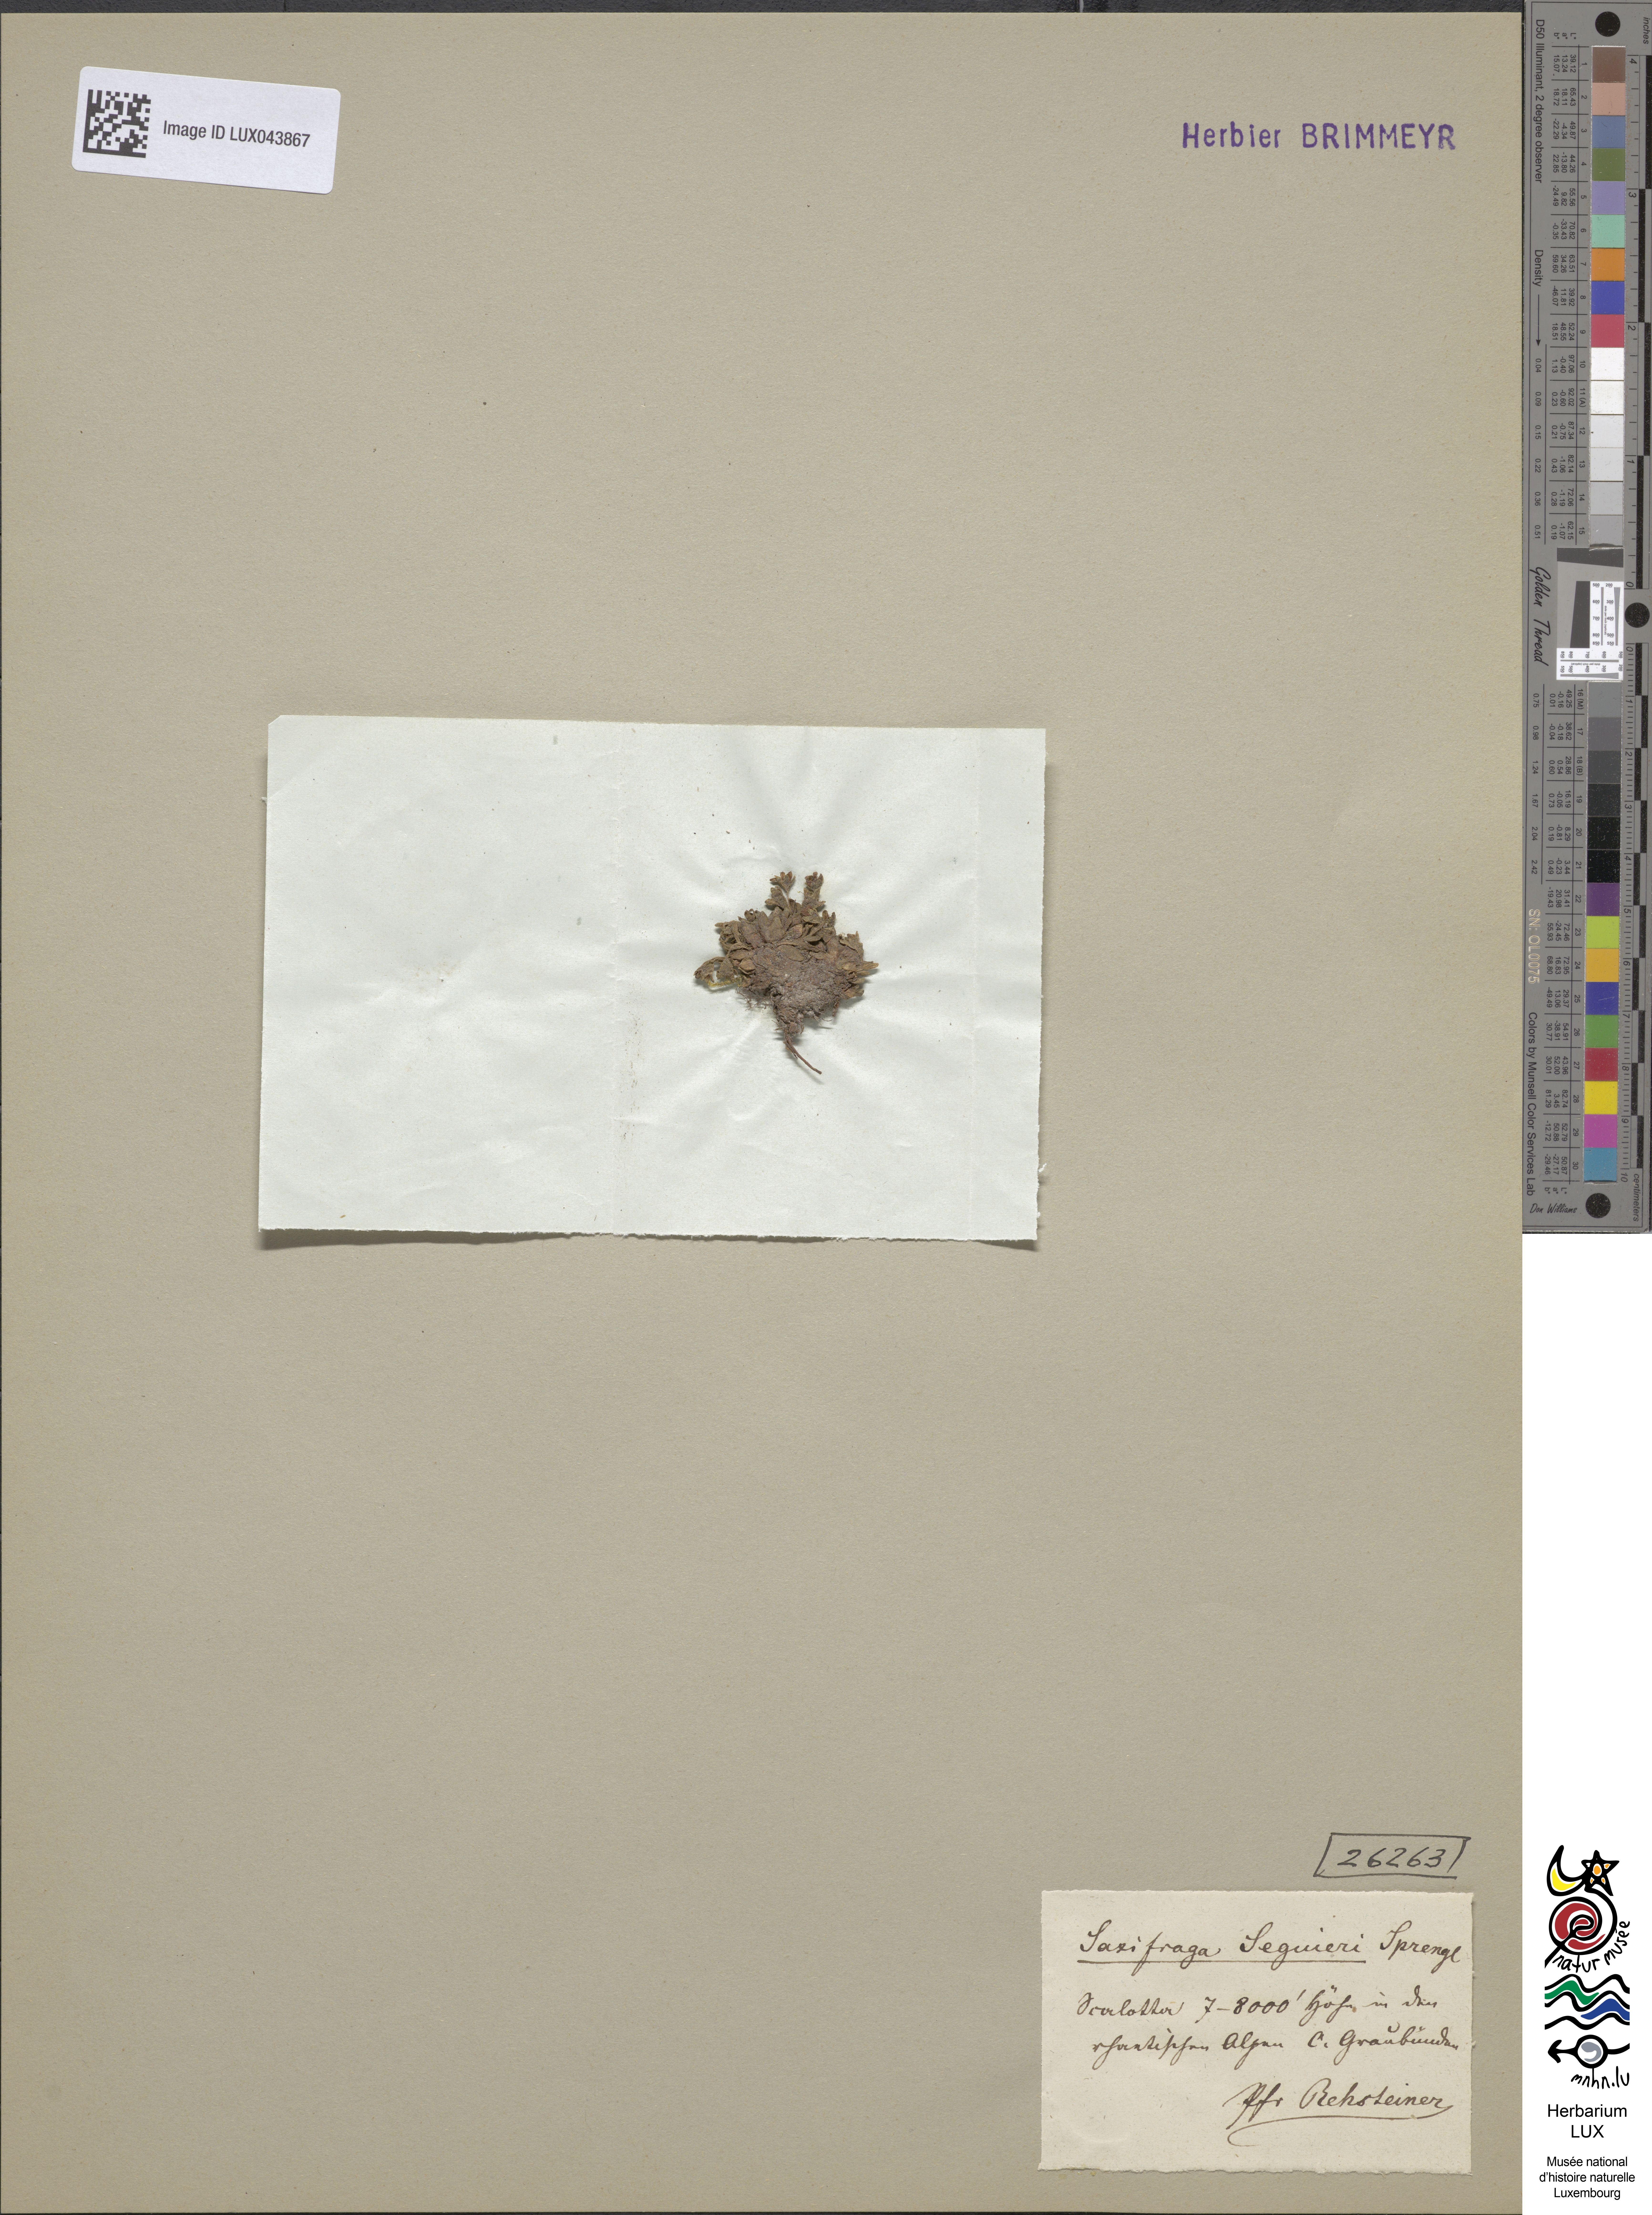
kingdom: Plantae
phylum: Tracheophyta
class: Magnoliopsida
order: Saxifragales
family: Saxifragaceae
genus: Saxifraga
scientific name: Saxifraga seguieri
